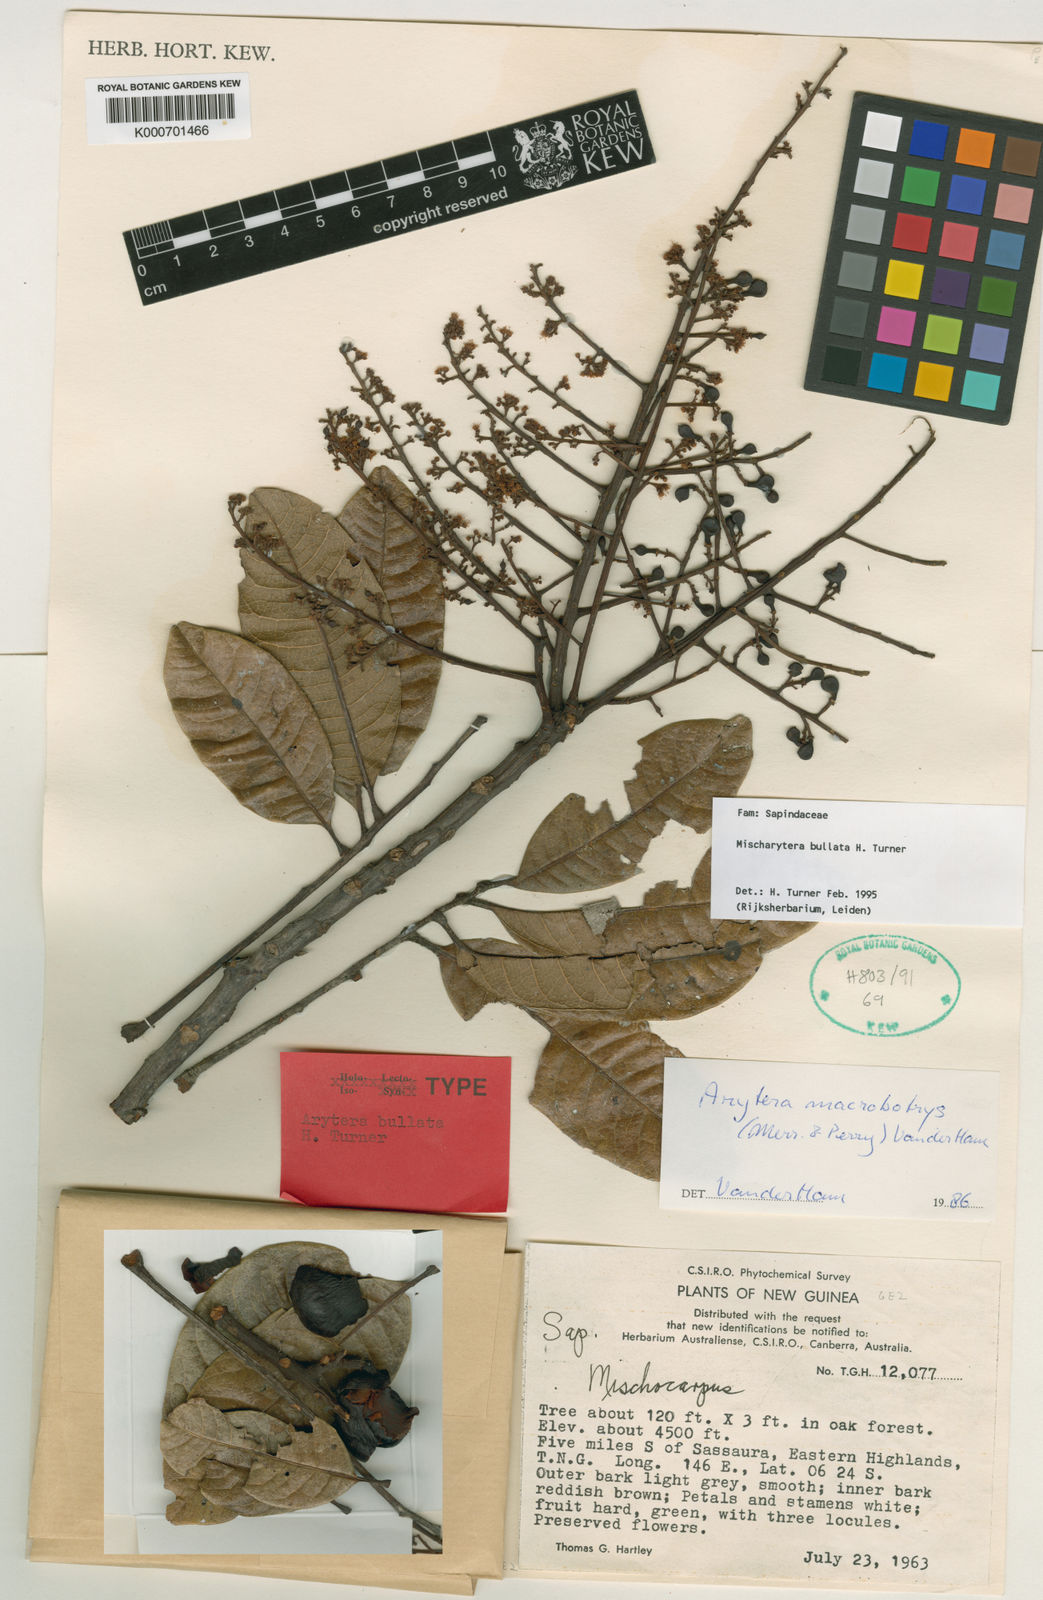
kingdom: Plantae
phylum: Tracheophyta
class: Magnoliopsida
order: Sapindales
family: Sapindaceae
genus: Mischarytera
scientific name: Mischarytera bullata
